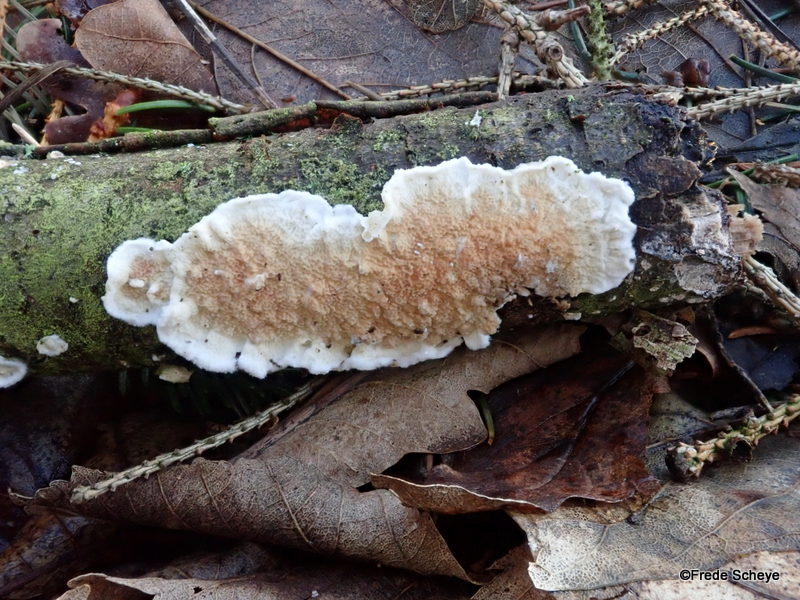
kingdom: Fungi
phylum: Basidiomycota
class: Agaricomycetes
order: Polyporales
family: Irpicaceae
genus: Byssomerulius
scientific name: Byssomerulius corium
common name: læder-åresvamp
